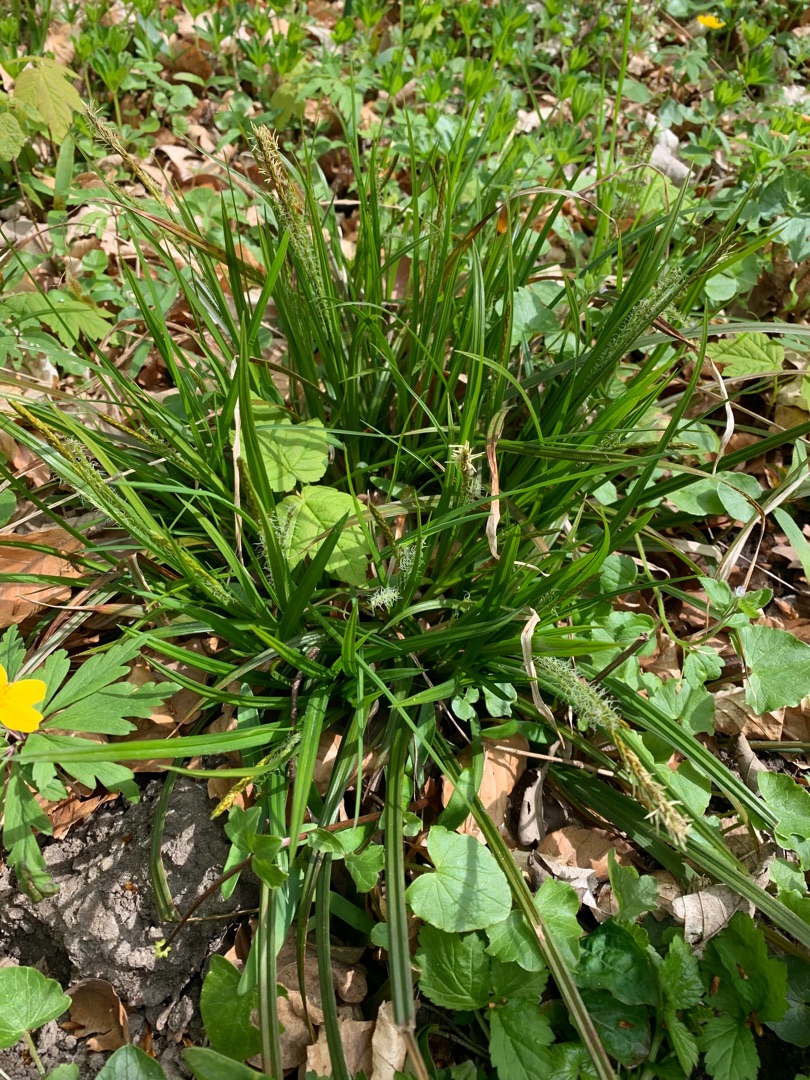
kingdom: Plantae
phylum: Tracheophyta
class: Liliopsida
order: Poales
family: Cyperaceae
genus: Carex
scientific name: Carex sylvatica
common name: Skov-star
